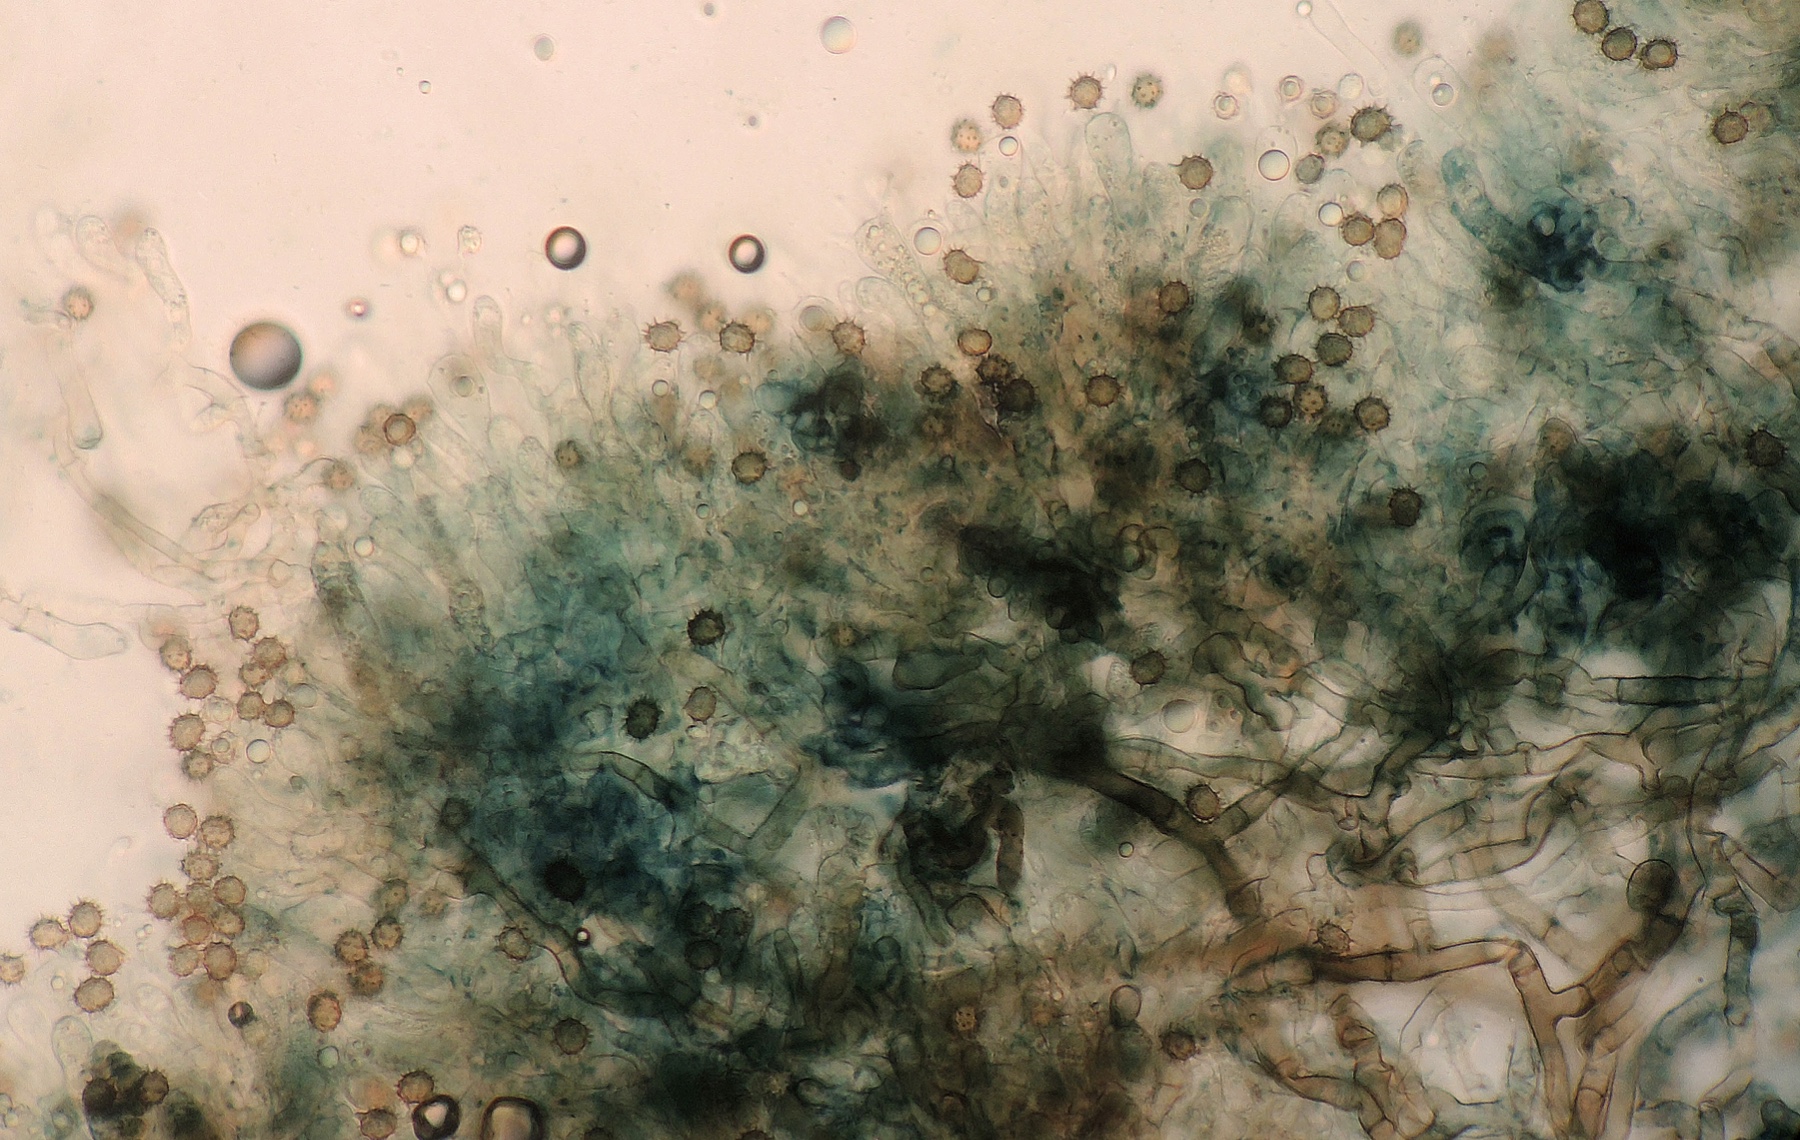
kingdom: Fungi
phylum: Basidiomycota
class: Agaricomycetes
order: Thelephorales
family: Thelephoraceae
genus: Tomentella
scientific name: Tomentella lapida
